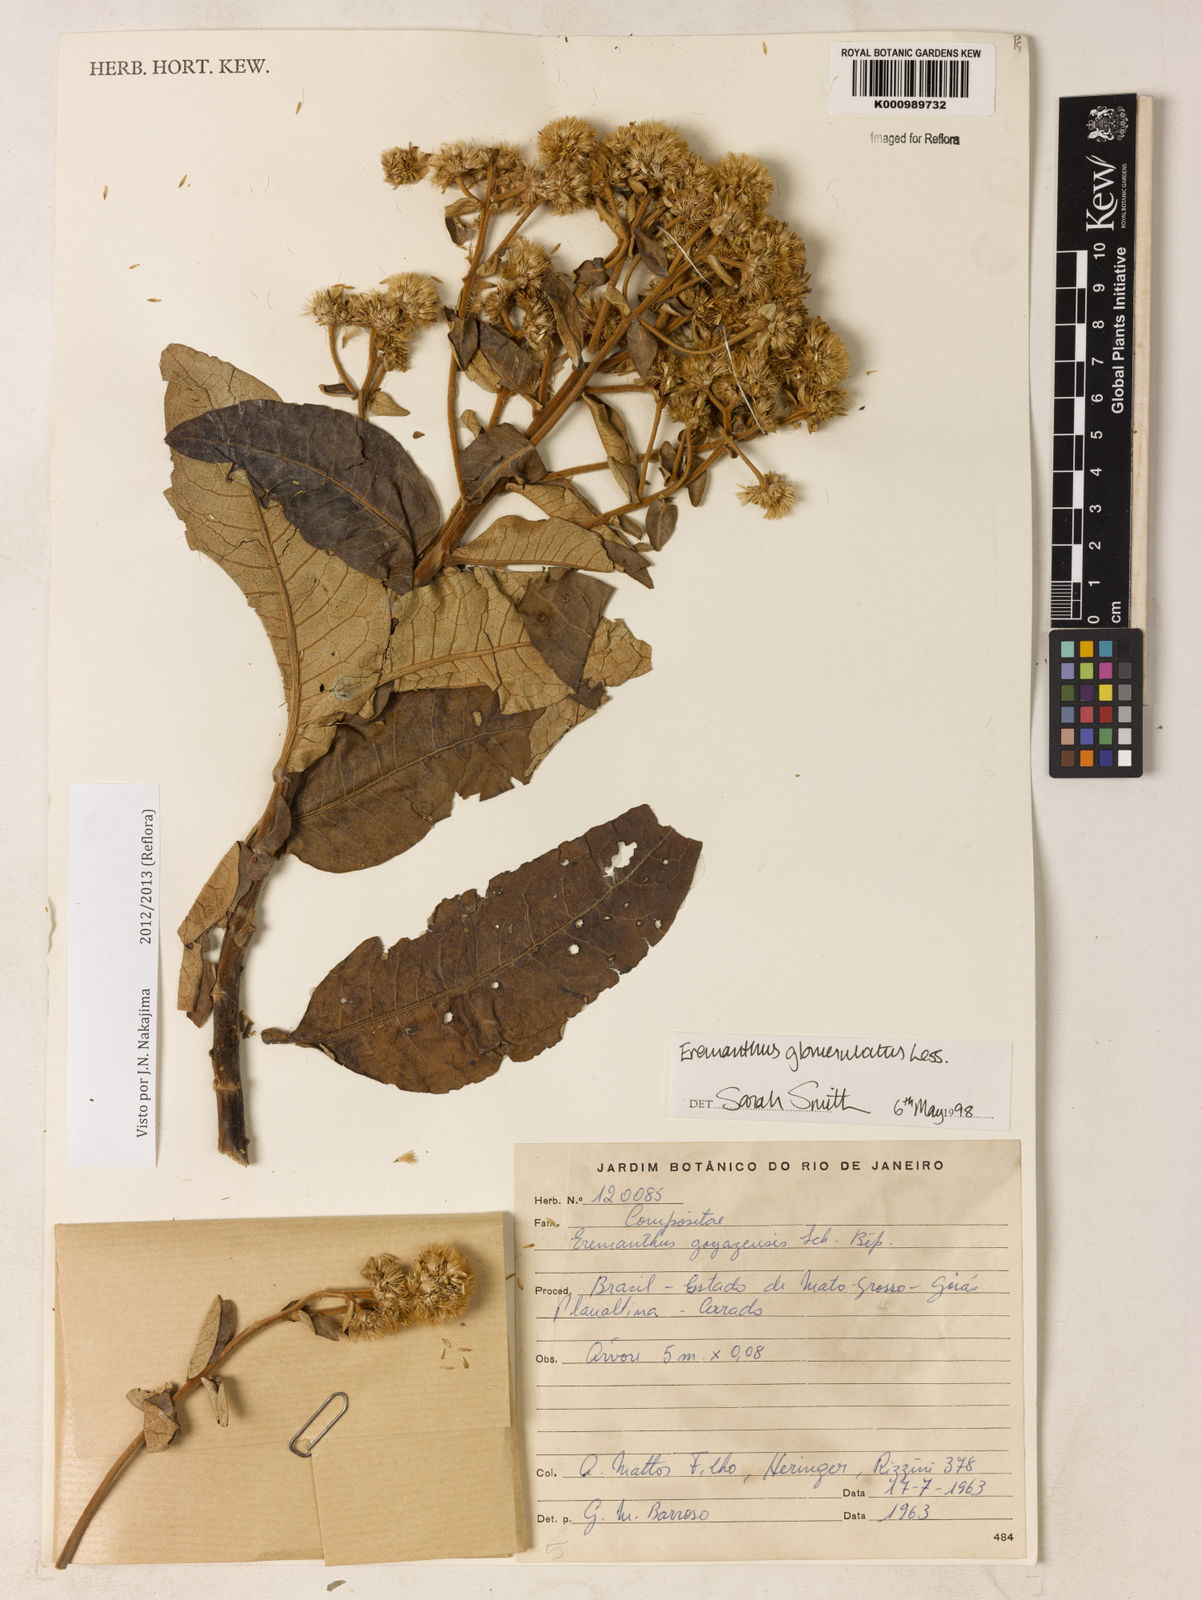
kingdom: Plantae
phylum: Tracheophyta
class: Magnoliopsida
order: Asterales
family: Asteraceae
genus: Eremanthus
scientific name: Eremanthus glomerulatus
